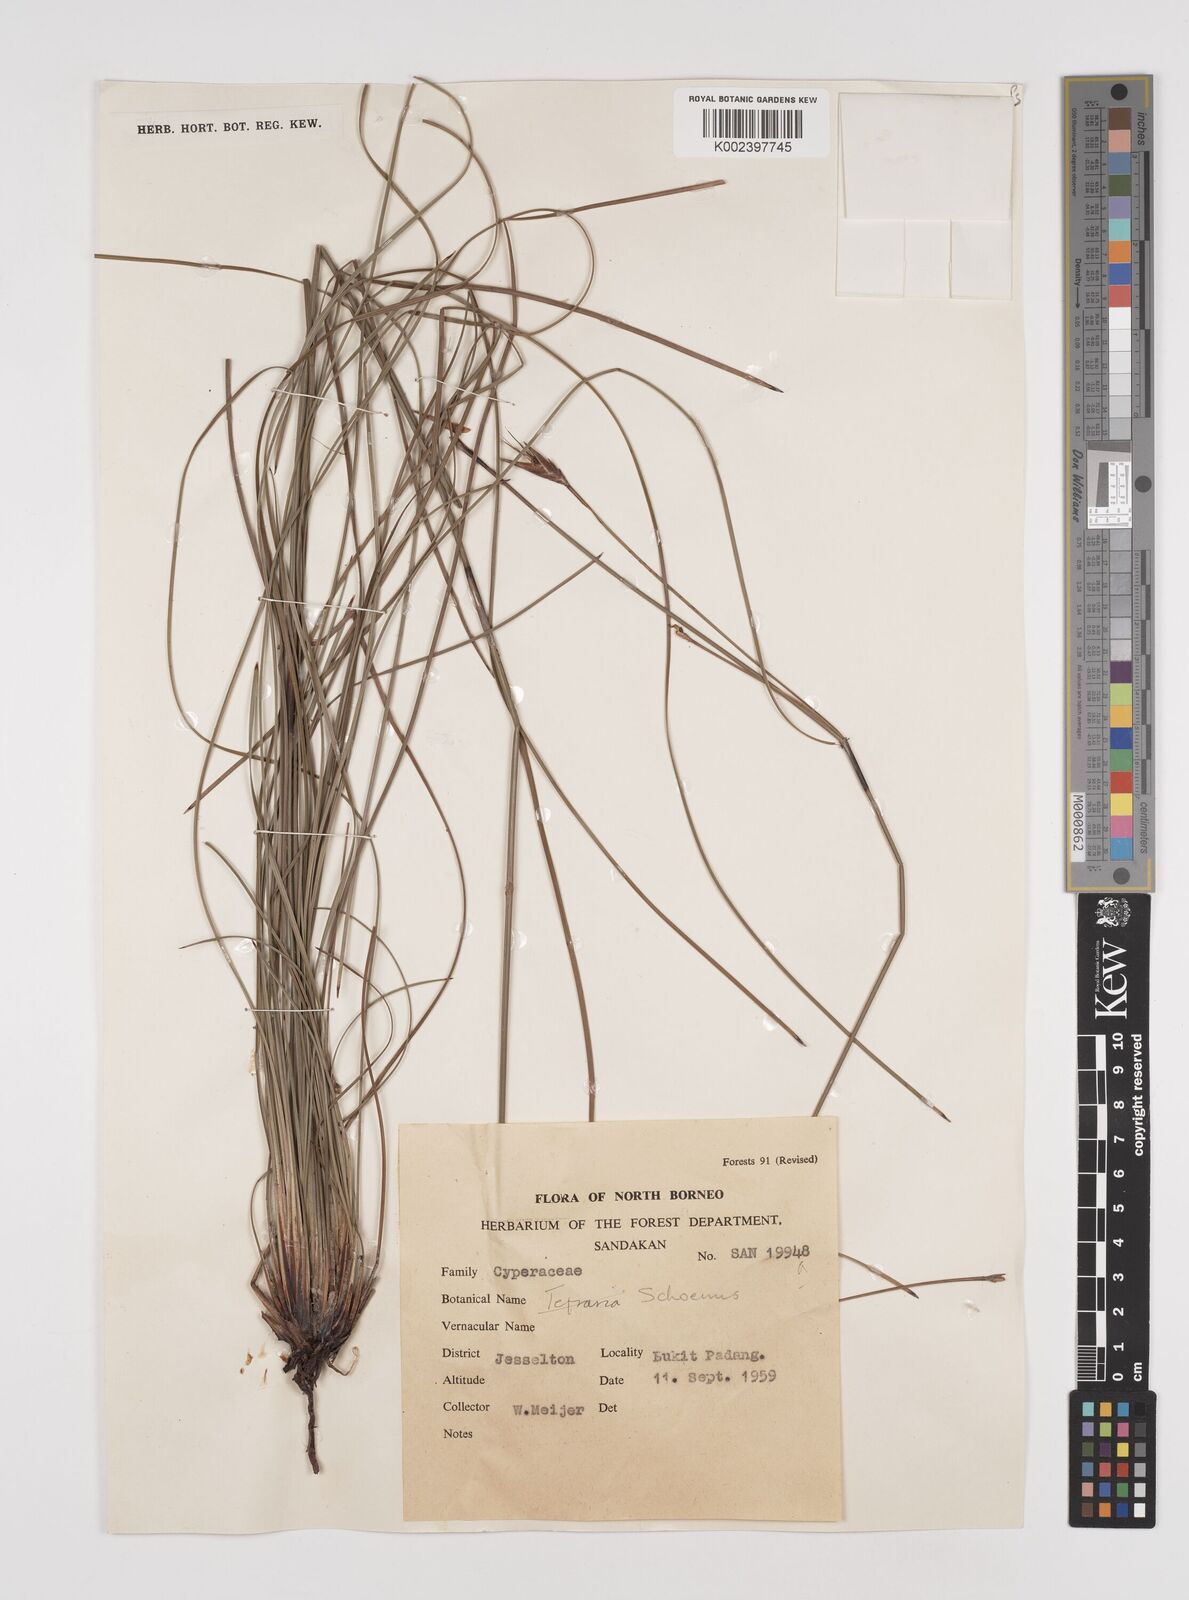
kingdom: Plantae
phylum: Tracheophyta
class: Liliopsida
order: Poales
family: Cyperaceae
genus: Schoenus
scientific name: Schoenus calostachyus
